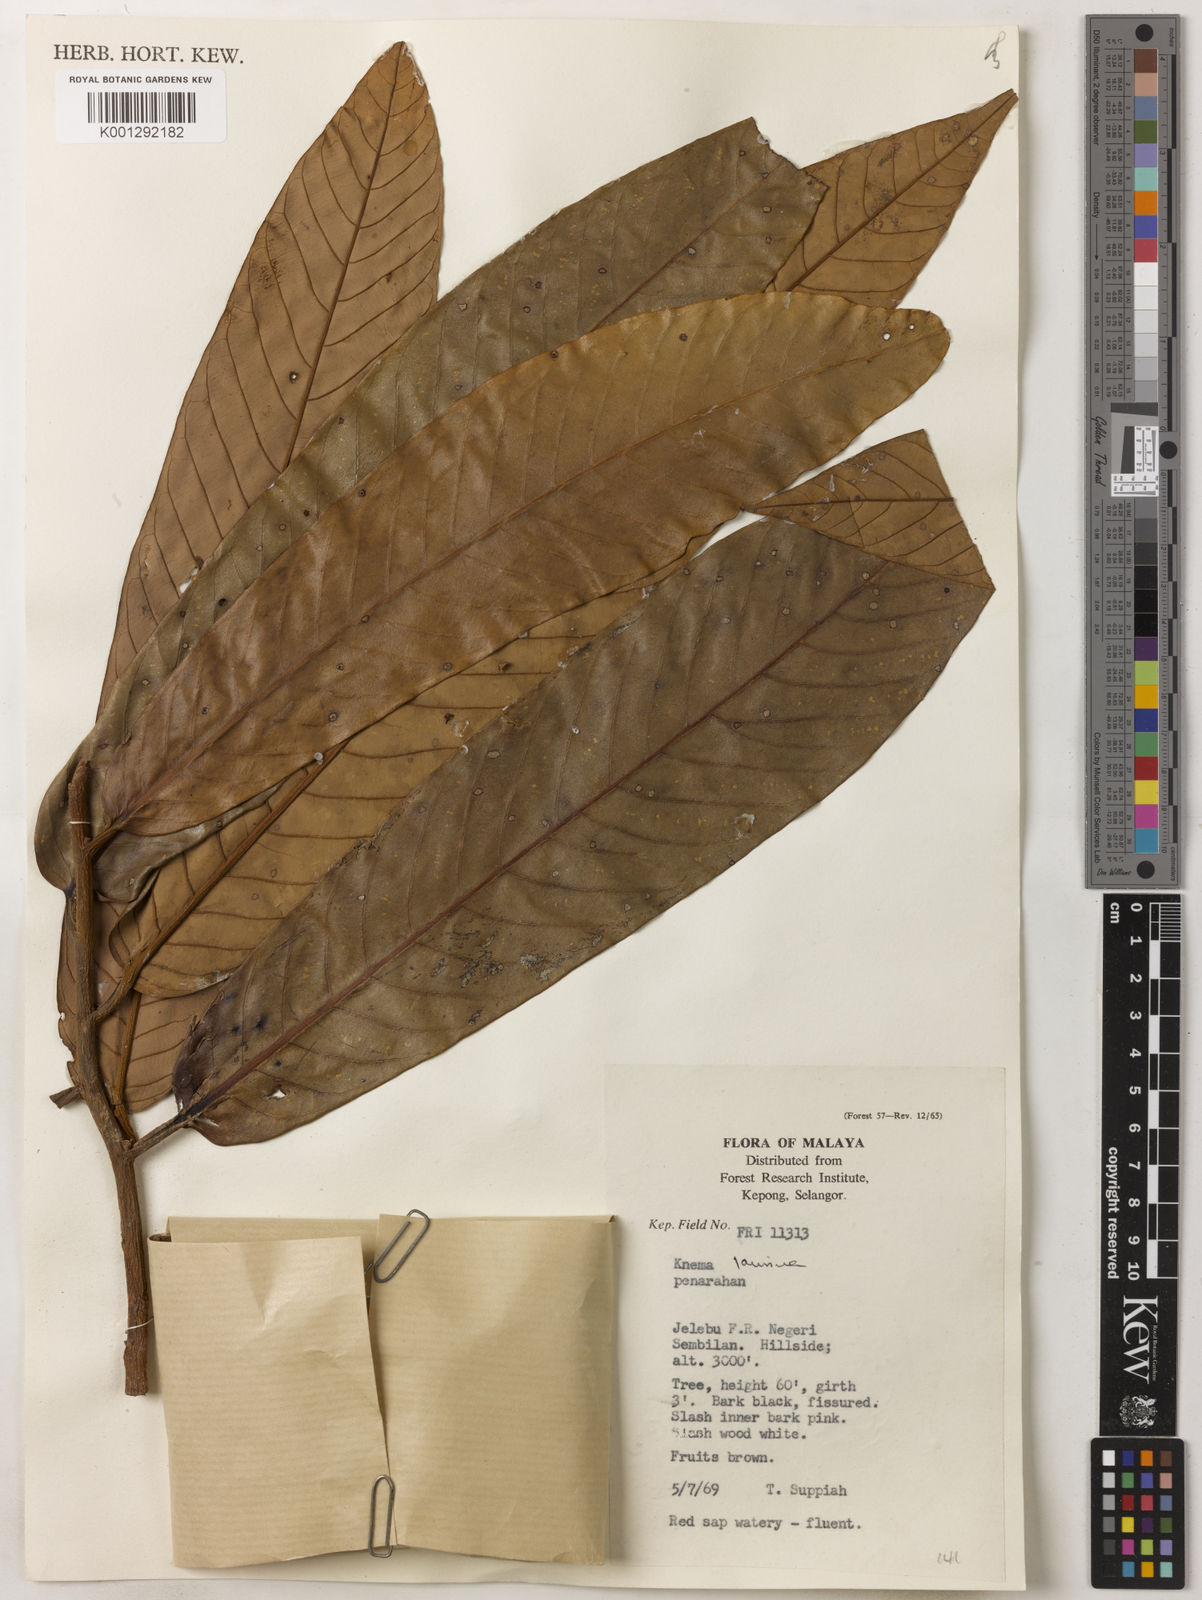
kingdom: Plantae
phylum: Tracheophyta
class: Magnoliopsida
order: Magnoliales
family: Myristicaceae
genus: Knema
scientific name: Knema laurina
